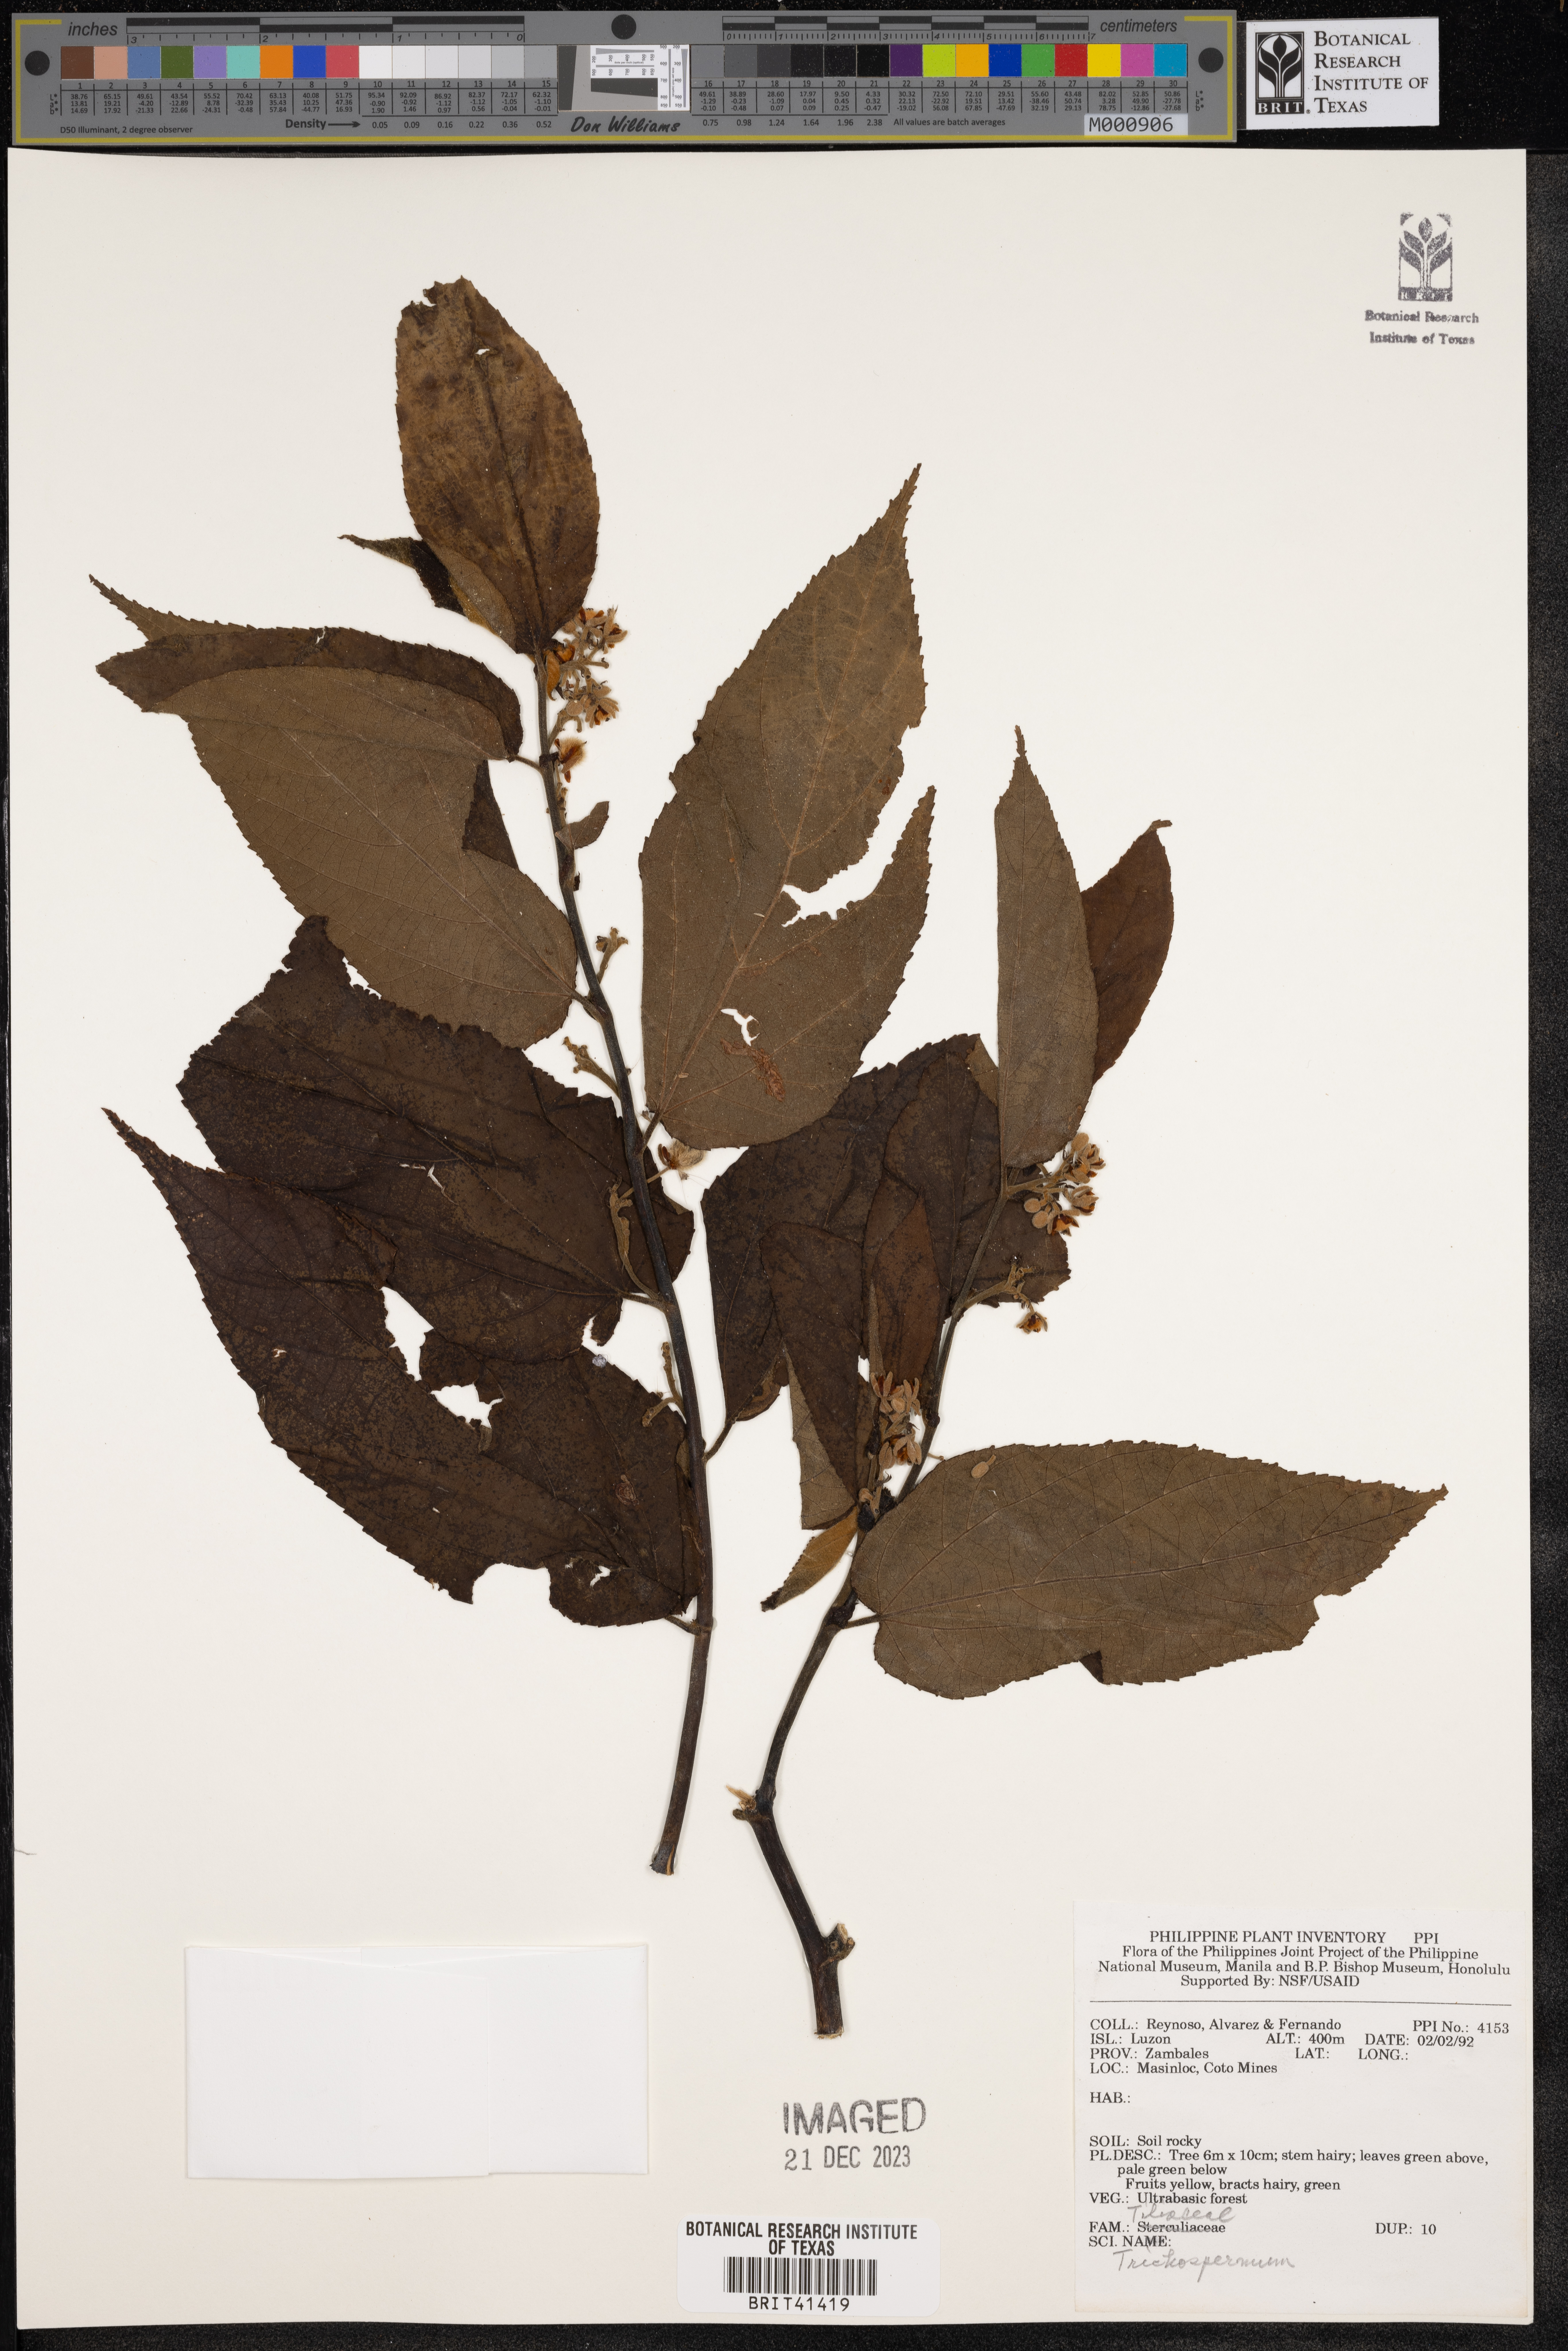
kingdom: Plantae
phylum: Tracheophyta
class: Magnoliopsida
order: Malvales
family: Malvaceae
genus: Trichospermum
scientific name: Trichospermum
